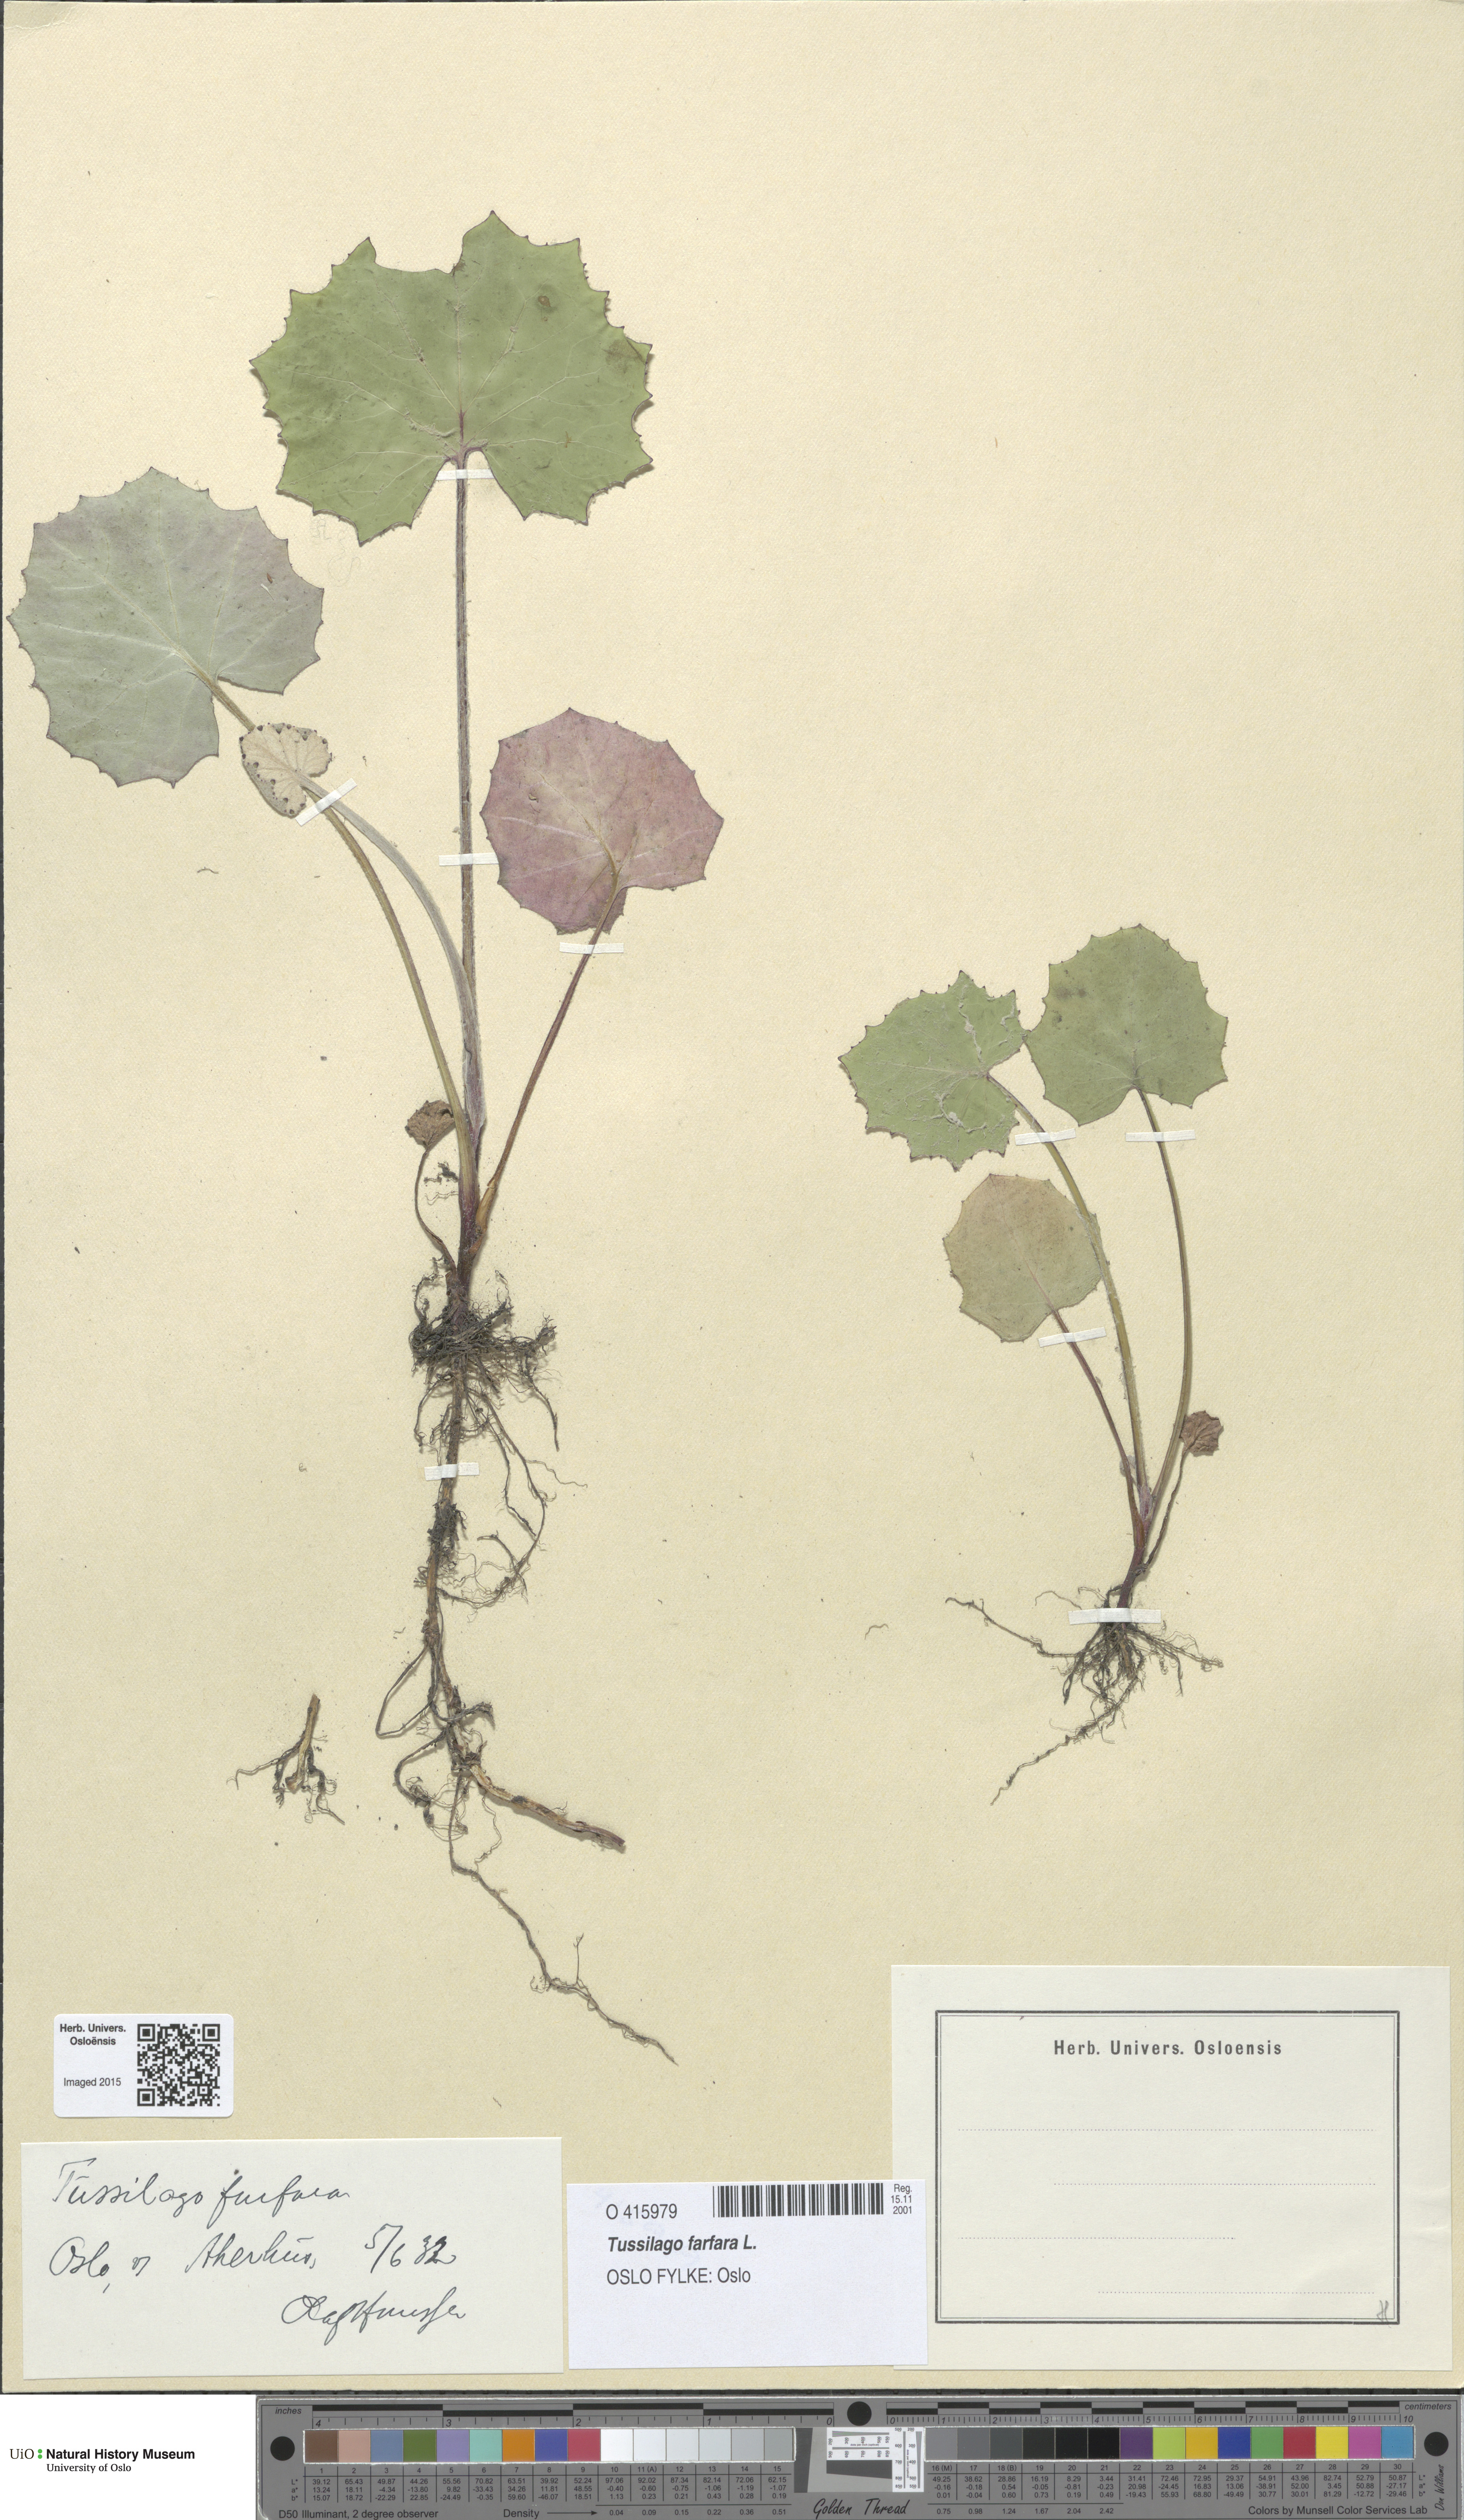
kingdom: Plantae
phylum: Tracheophyta
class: Magnoliopsida
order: Asterales
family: Asteraceae
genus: Tussilago
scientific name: Tussilago farfara
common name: Coltsfoot
